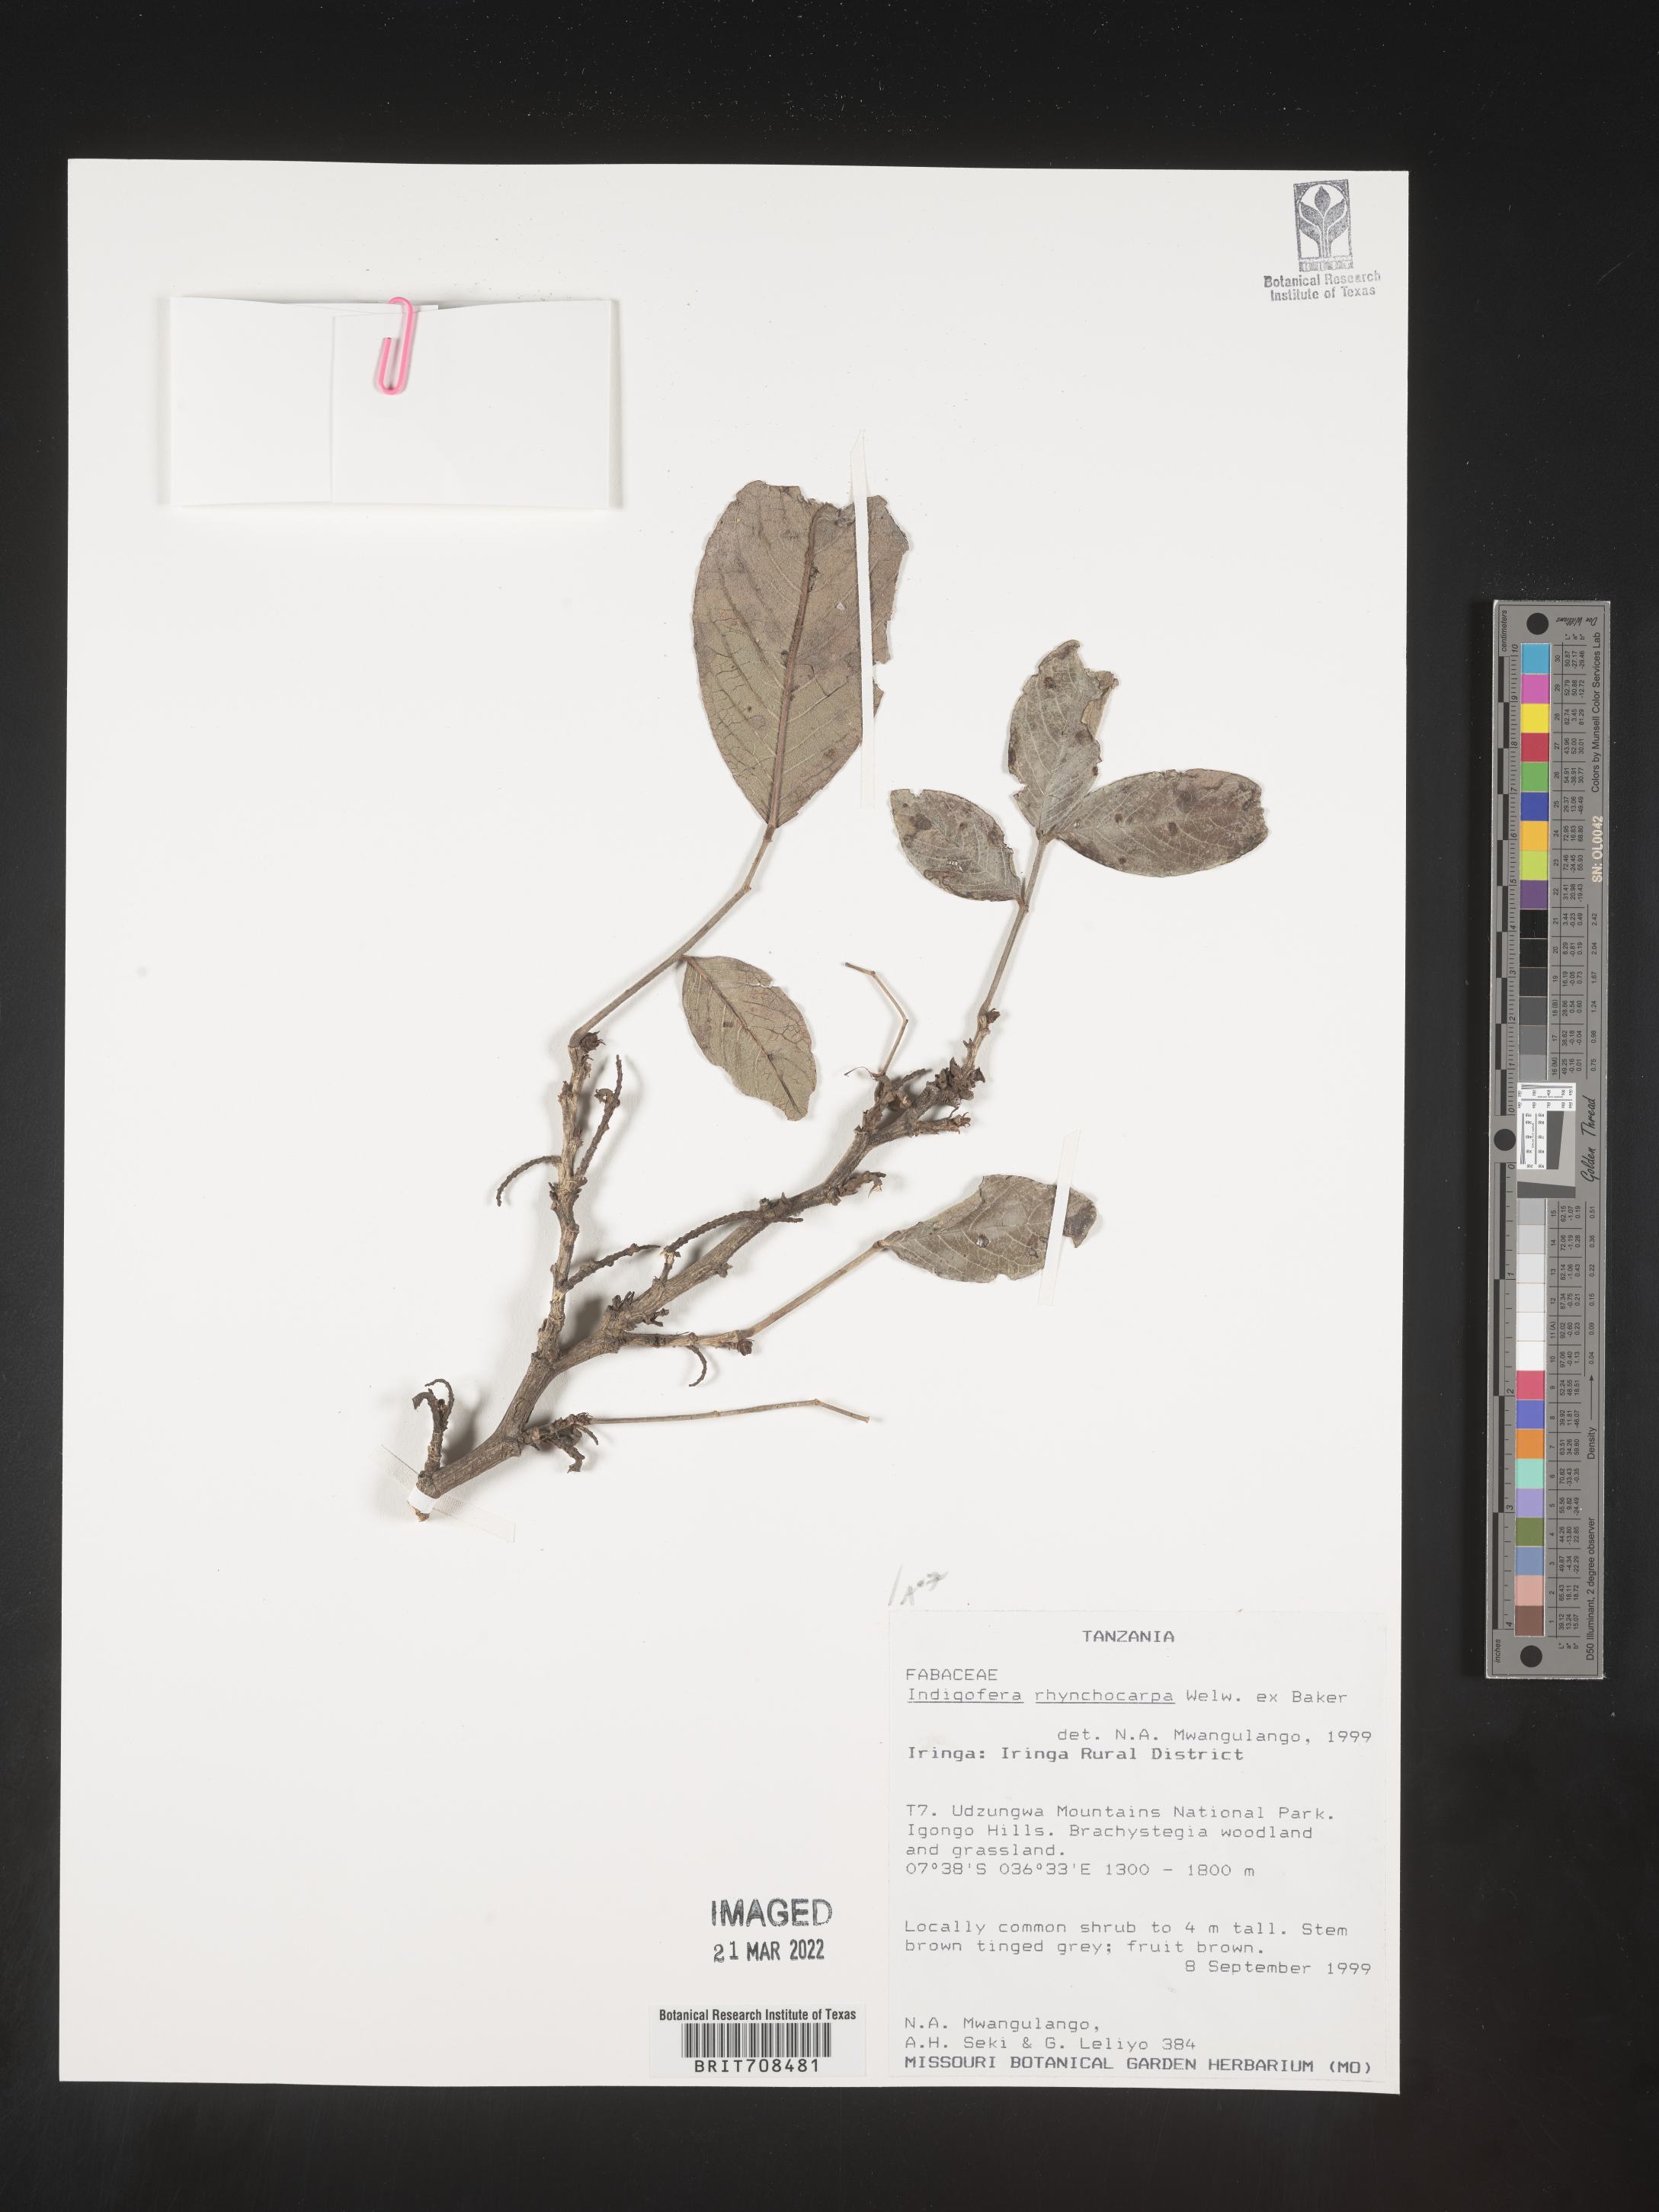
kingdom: Plantae
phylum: Tracheophyta
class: Magnoliopsida
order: Fabales
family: Fabaceae
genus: Indigofera
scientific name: Indigofera
